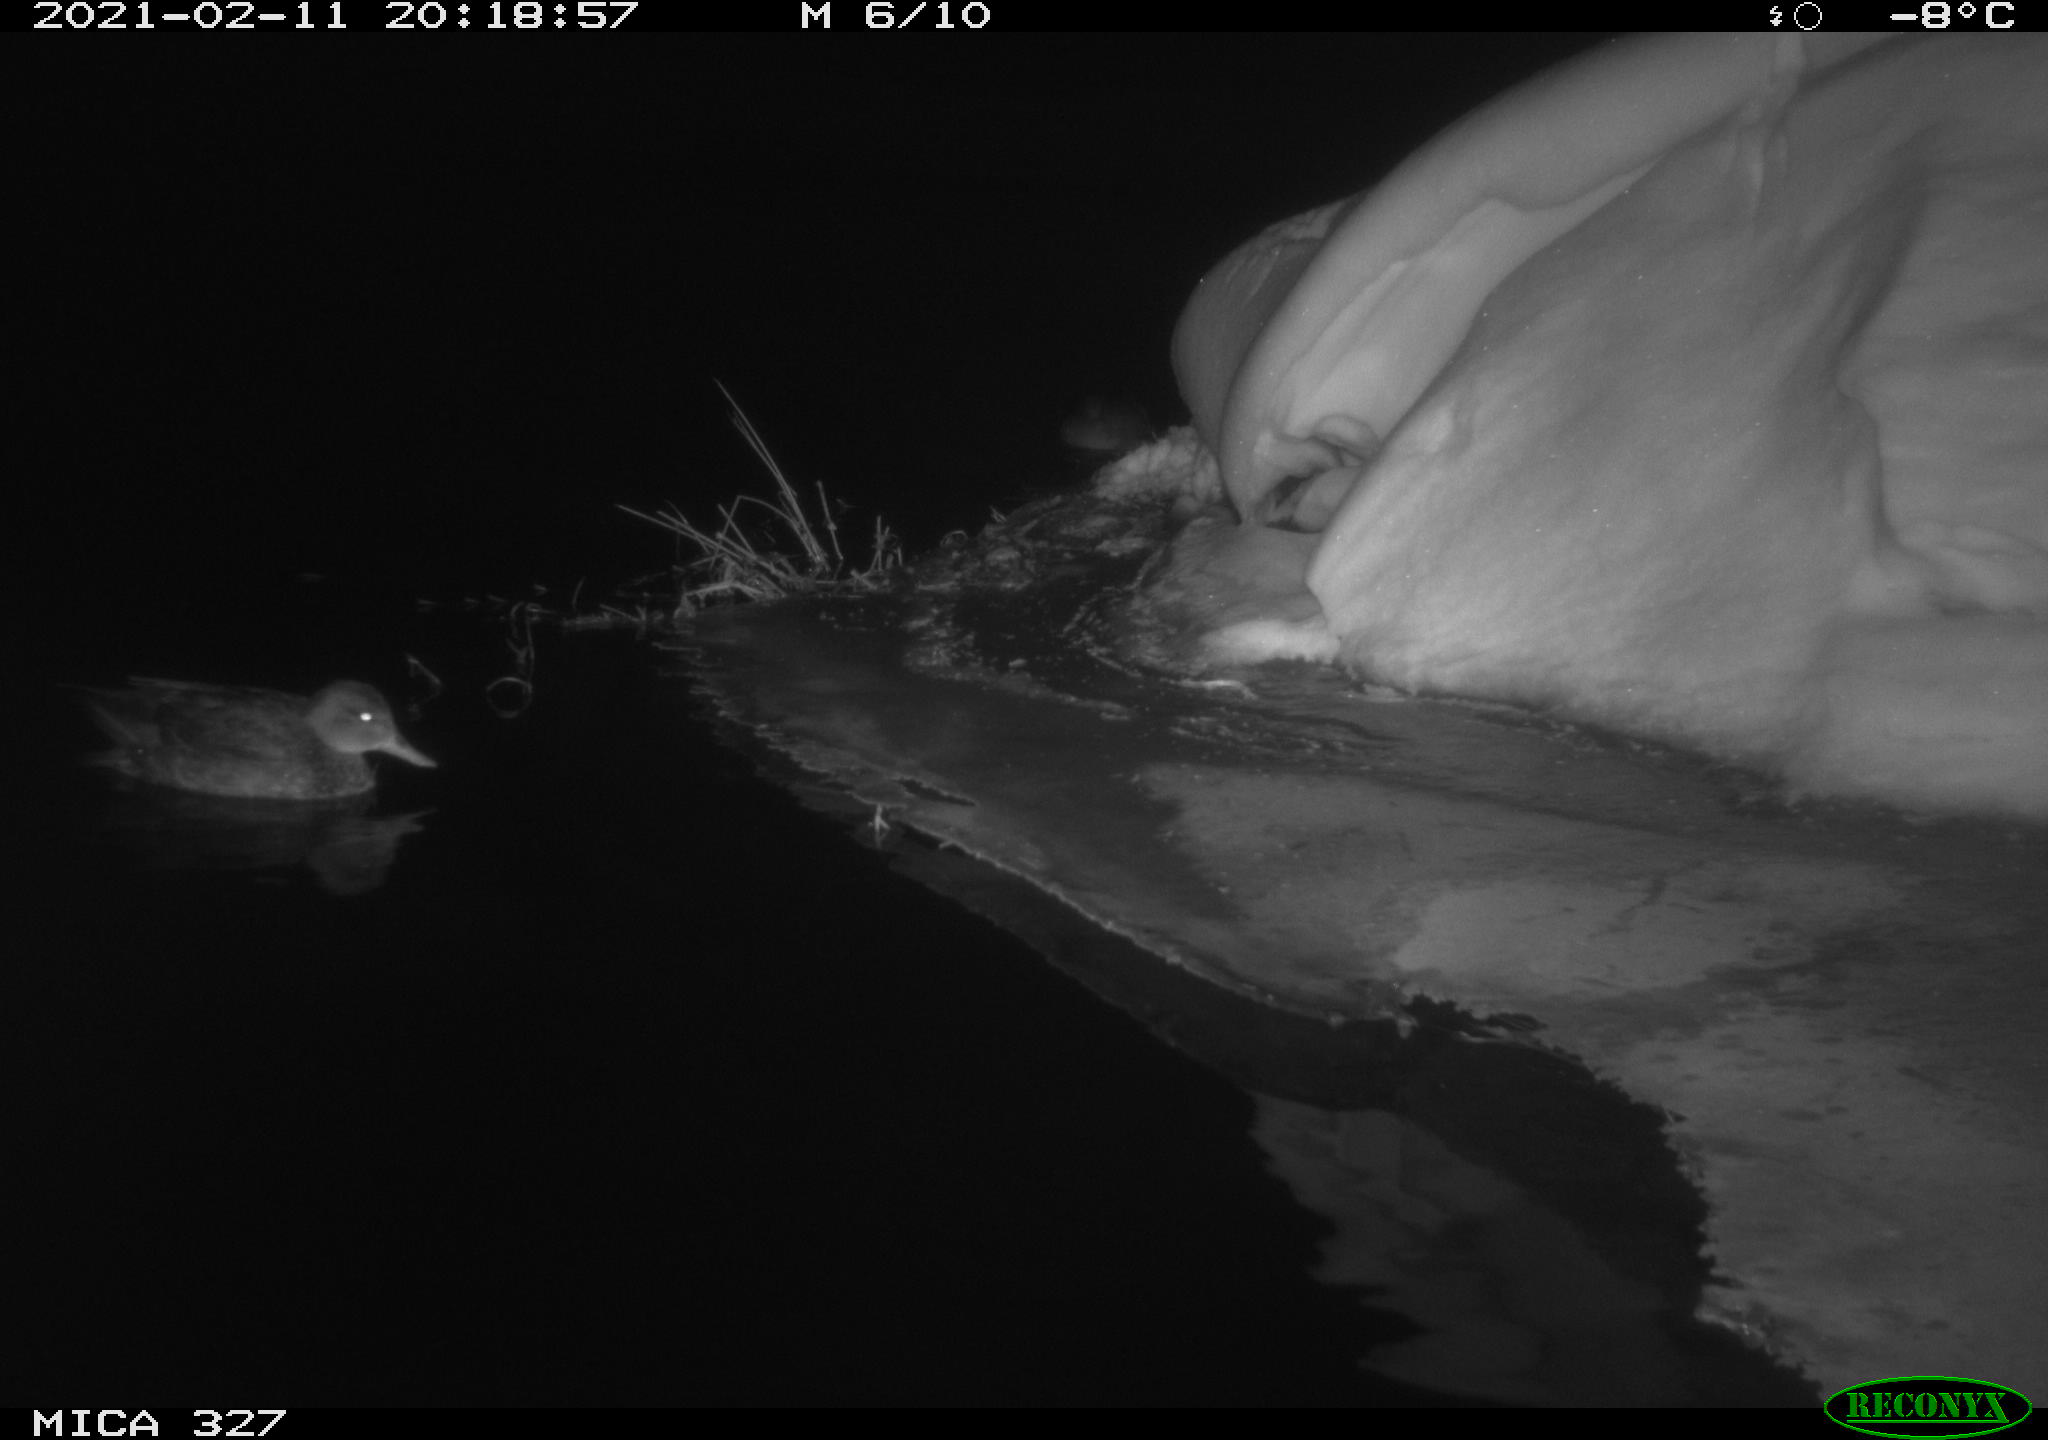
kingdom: Animalia
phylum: Chordata
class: Aves
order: Anseriformes
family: Anatidae
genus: Anas
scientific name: Anas
